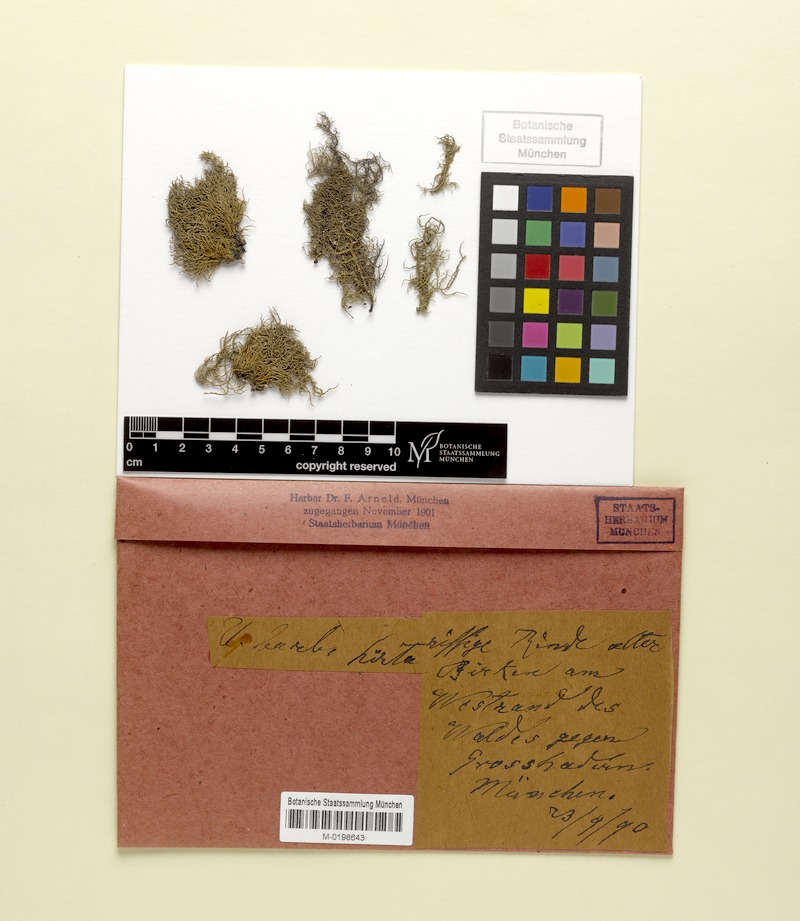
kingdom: Fungi
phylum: Ascomycota
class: Lecanoromycetes
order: Lecanorales
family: Parmeliaceae
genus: Usnea
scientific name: Usnea hirta
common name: Bristly beard lichen
